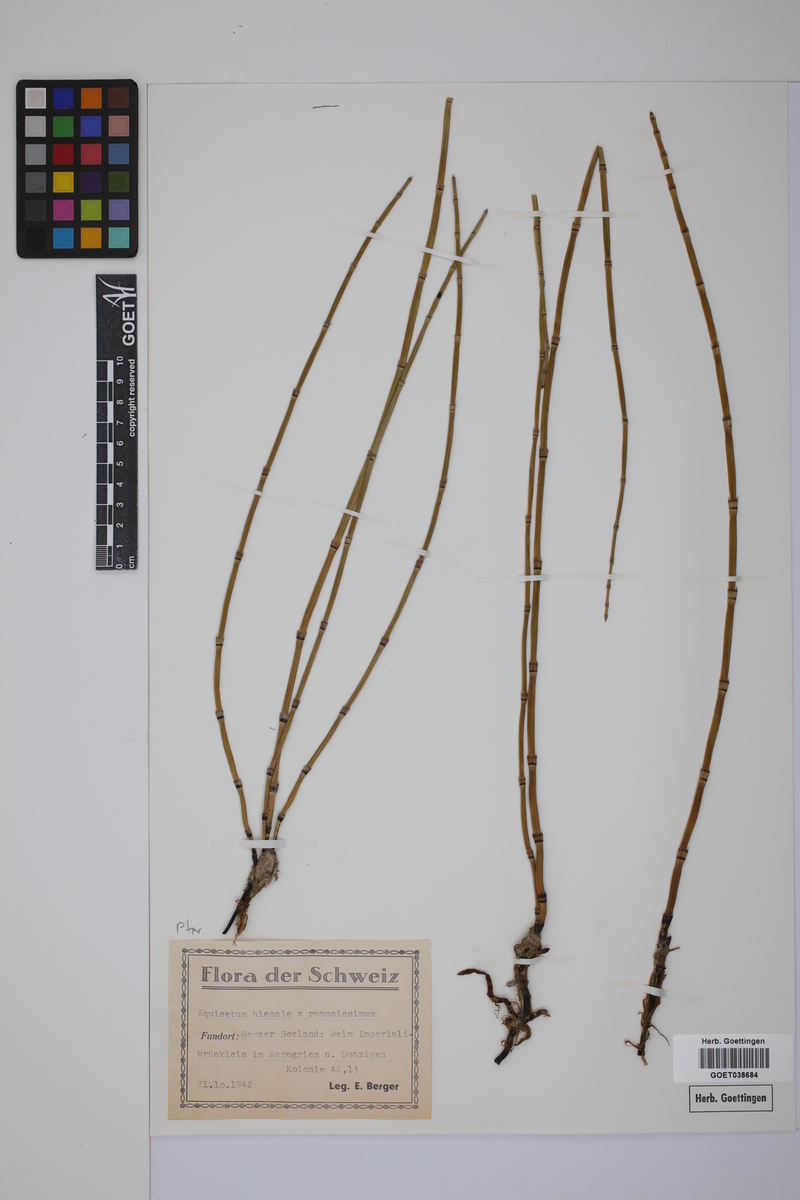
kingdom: Plantae
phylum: Tracheophyta
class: Polypodiopsida
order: Equisetales
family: Equisetaceae
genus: Equisetum
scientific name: Equisetum hyemale
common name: Rough horsetail
